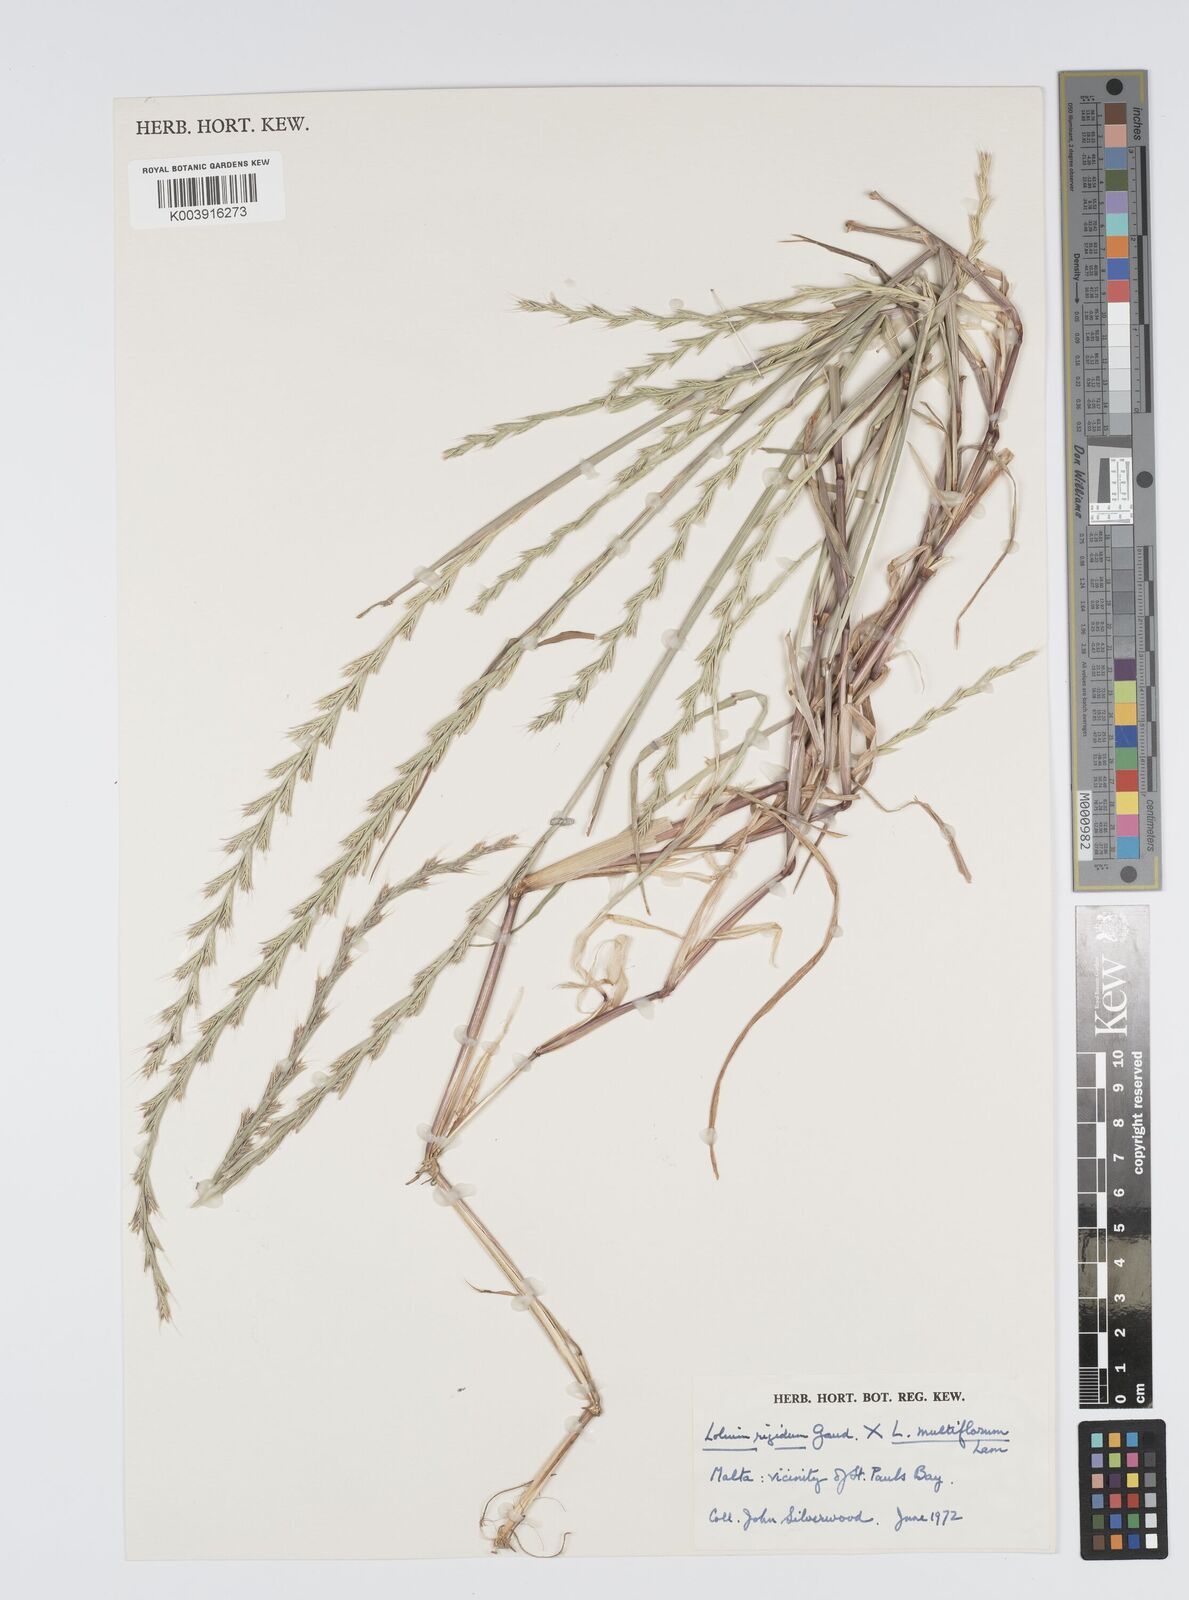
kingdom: Plantae
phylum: Tracheophyta
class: Liliopsida
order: Poales
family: Poaceae
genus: Lolium
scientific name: Lolium rigidum
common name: Wimmera ryegrass
